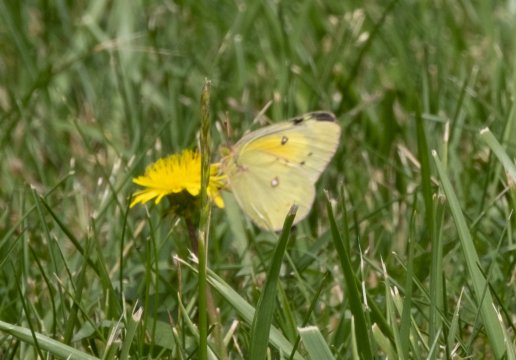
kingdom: Animalia
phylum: Arthropoda
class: Insecta
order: Lepidoptera
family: Pieridae
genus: Colias
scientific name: Colias eurytheme
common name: Orange Sulphur
